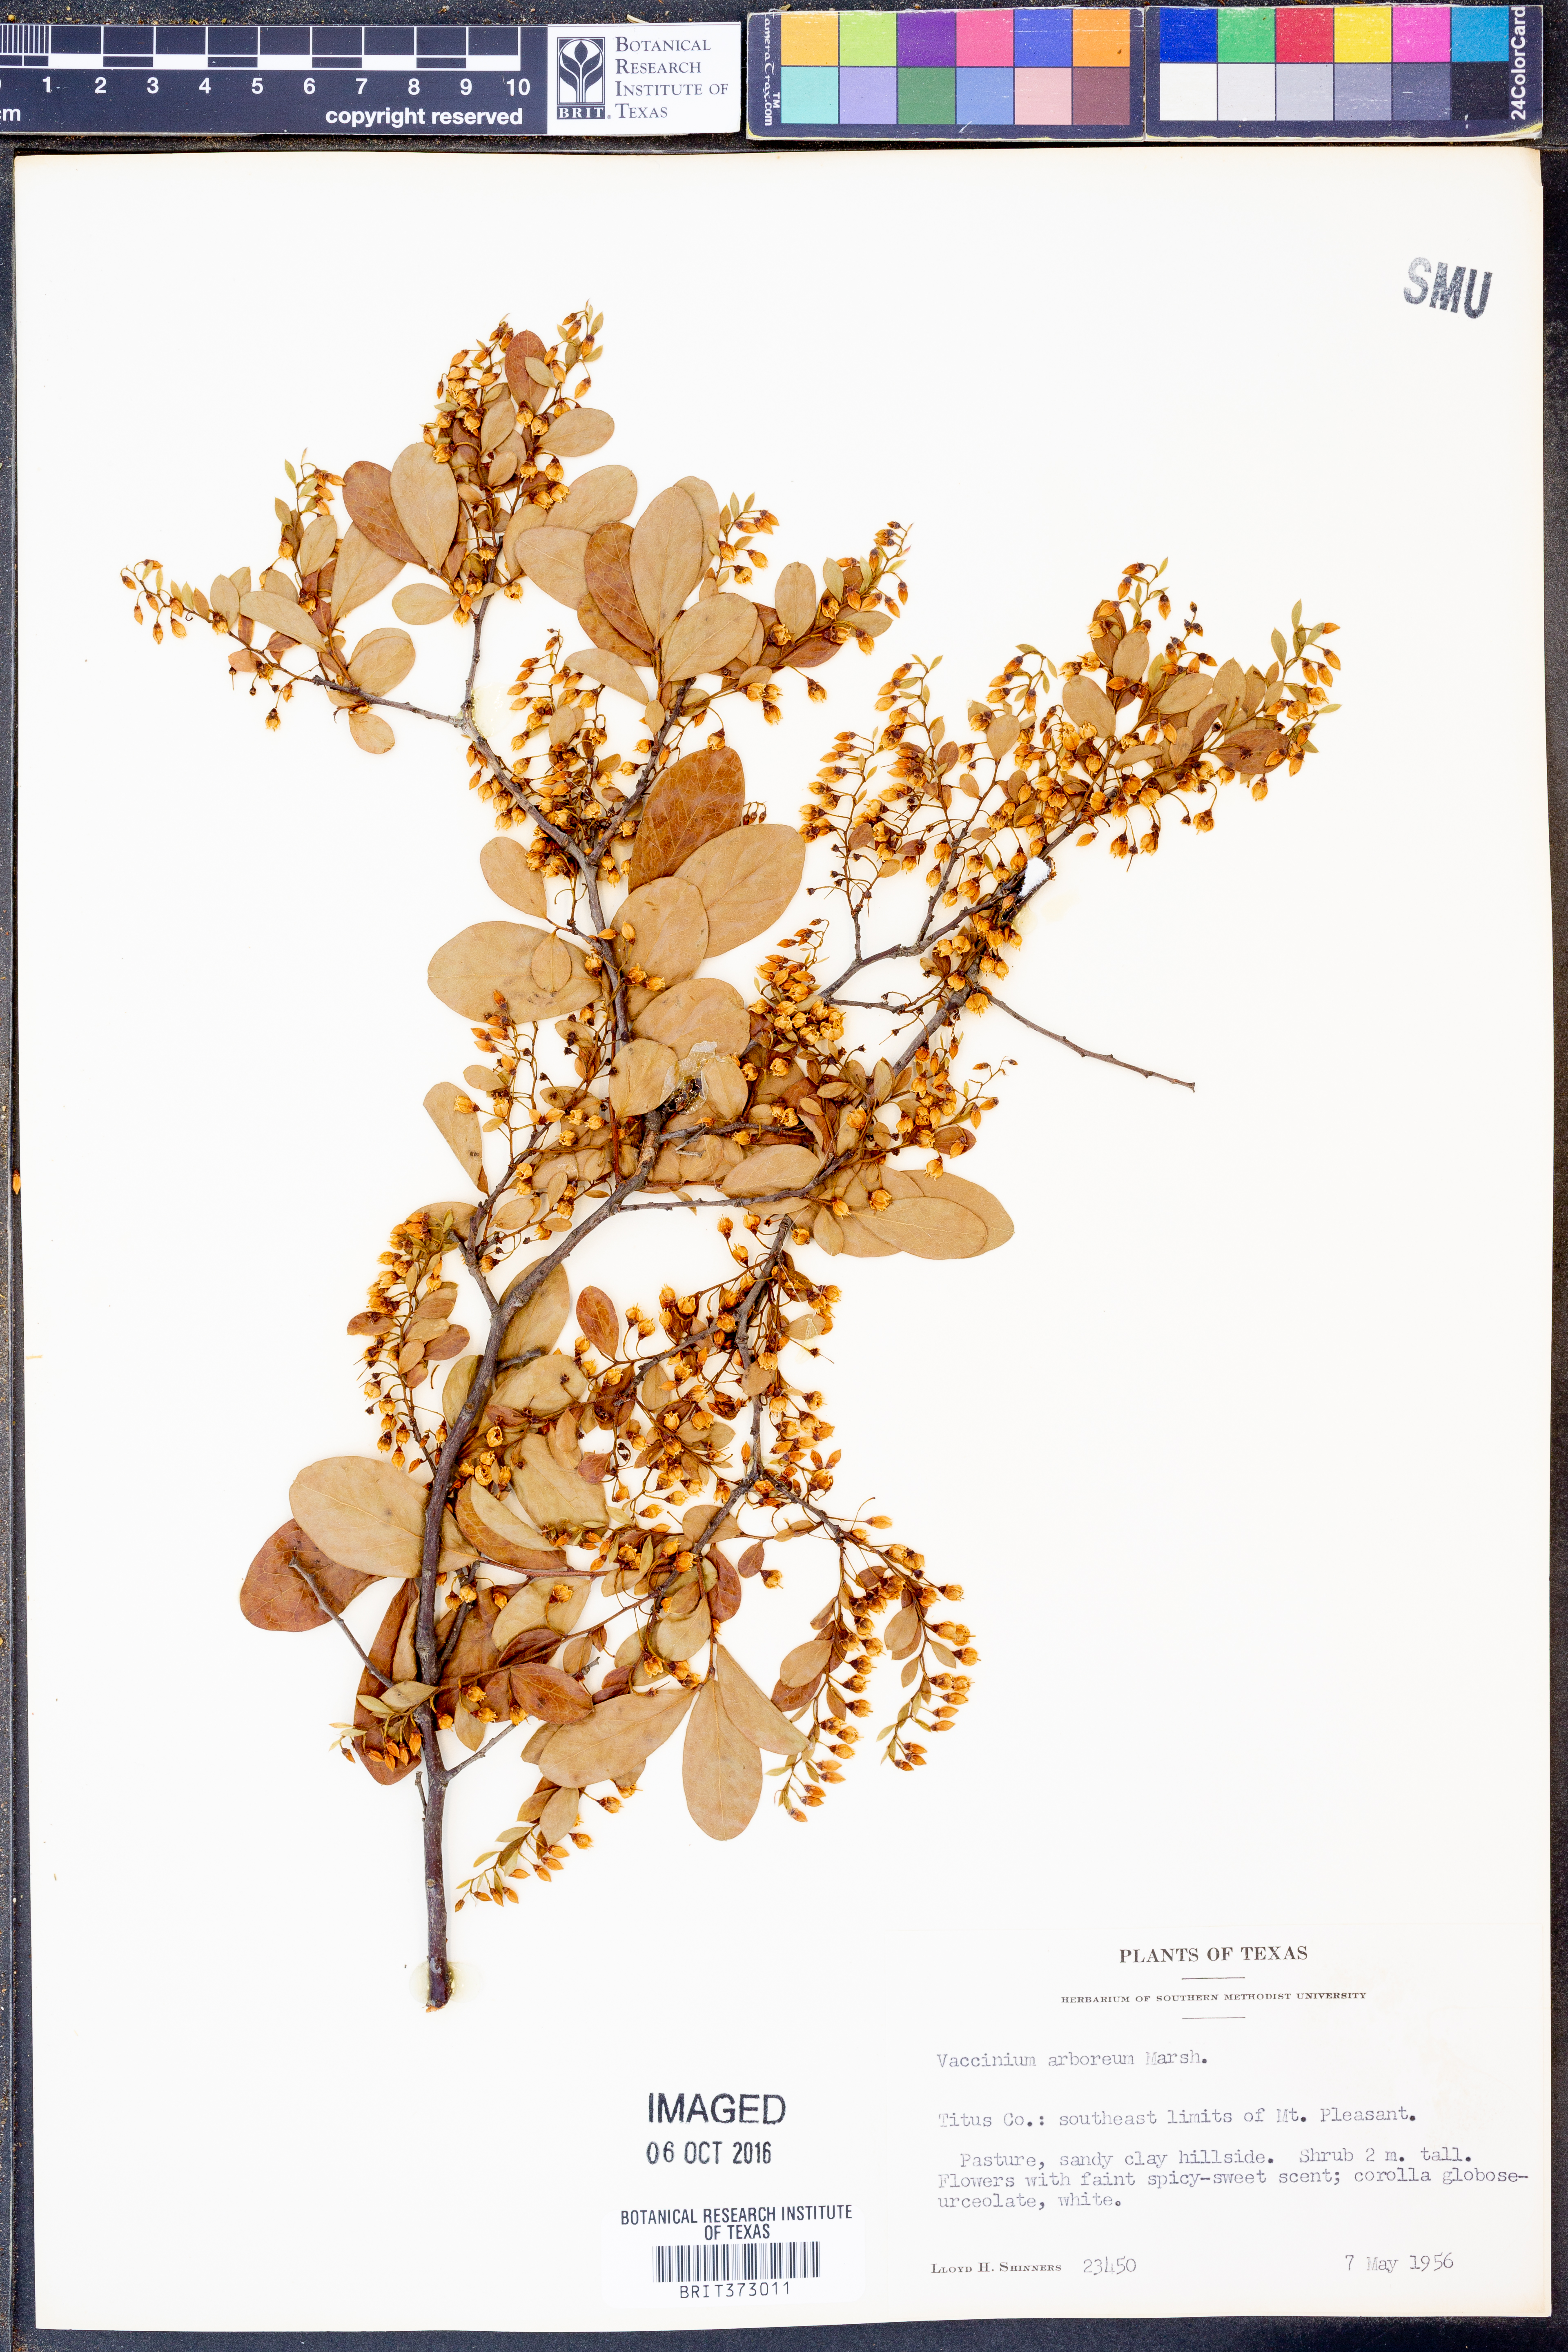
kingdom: Plantae
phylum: Tracheophyta
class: Magnoliopsida
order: Ericales
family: Ericaceae
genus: Vaccinium
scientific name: Vaccinium arboreum
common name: Farkleberry
